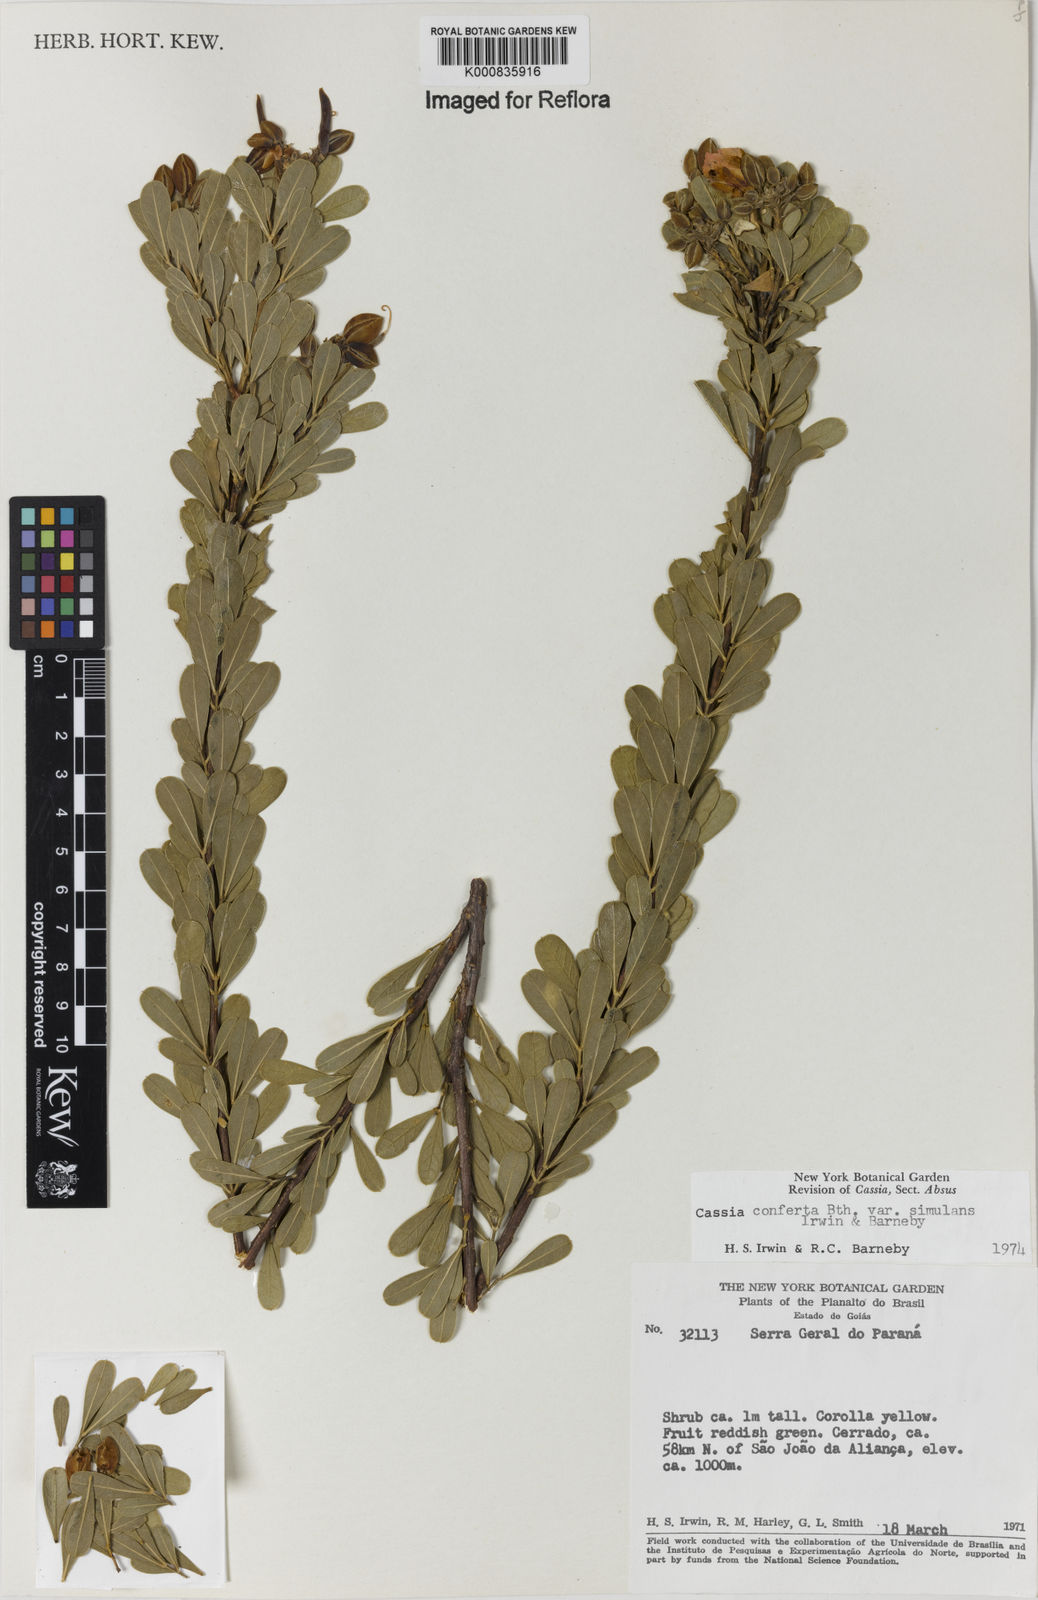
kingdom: Plantae
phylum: Tracheophyta
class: Magnoliopsida
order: Fabales
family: Fabaceae
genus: Chamaecrista
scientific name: Chamaecrista conferta
